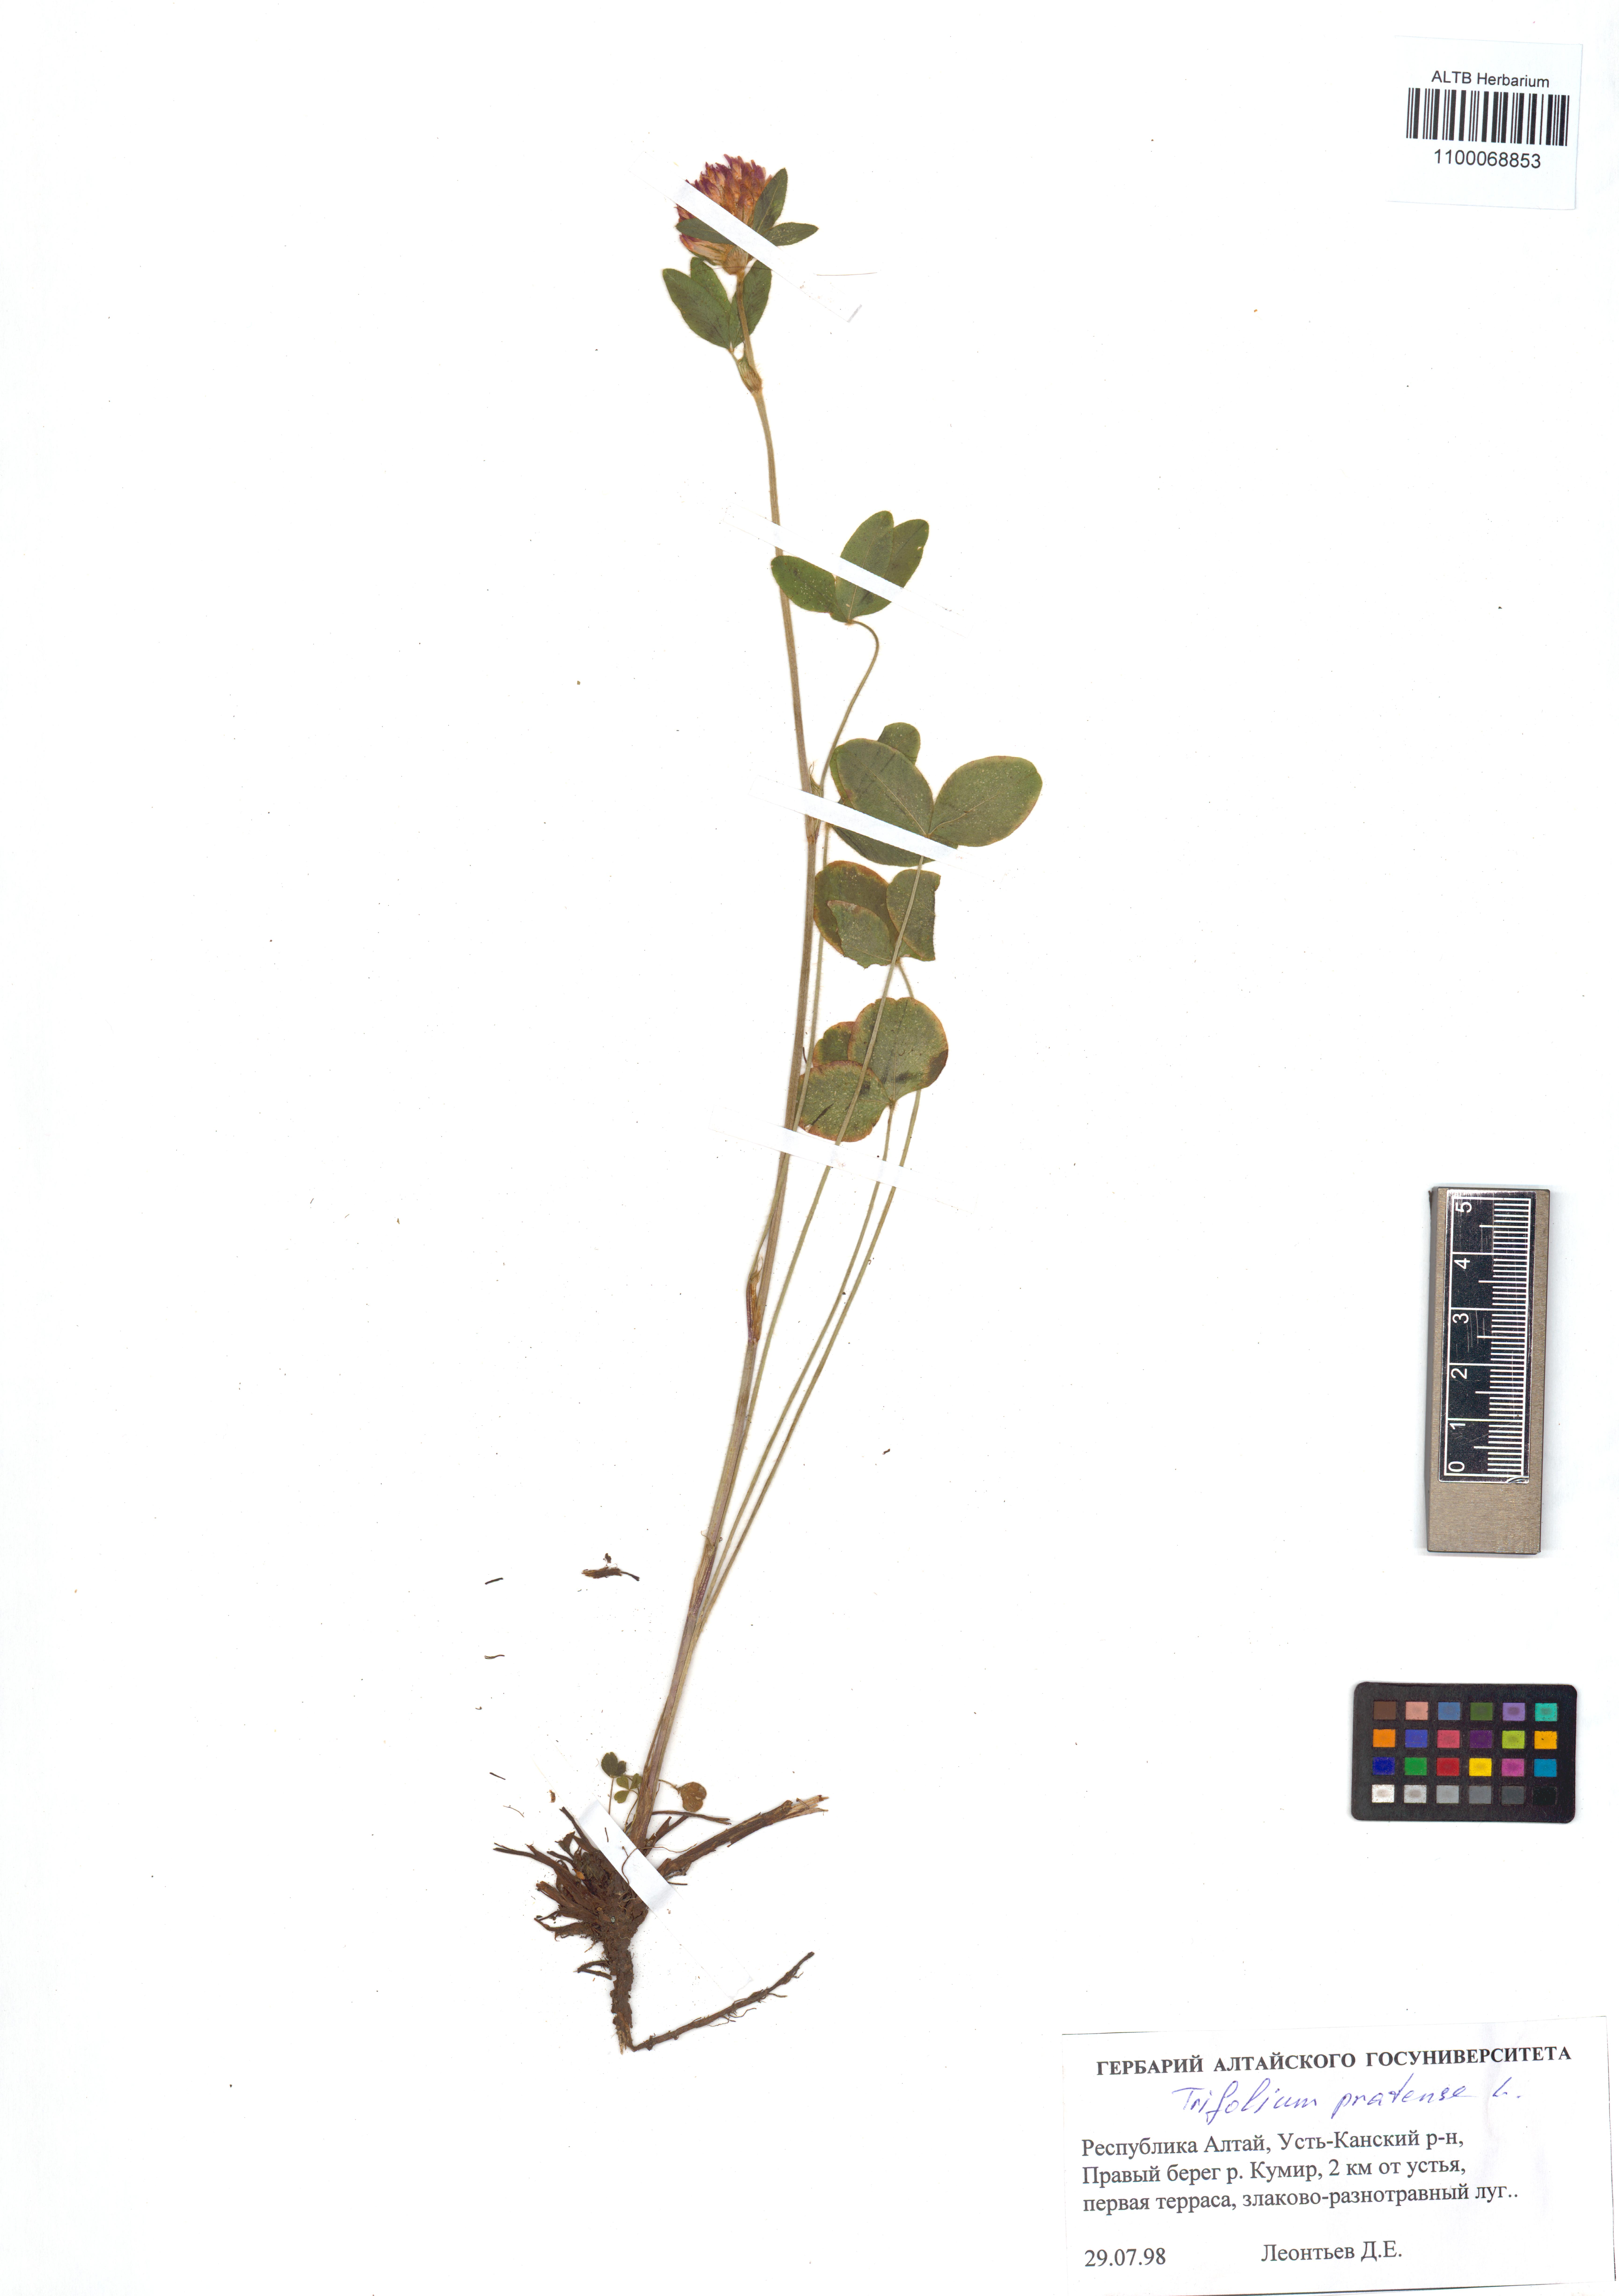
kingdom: Plantae
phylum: Tracheophyta
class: Magnoliopsida
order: Fabales
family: Fabaceae
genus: Trifolium
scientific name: Trifolium pratense
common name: Red clover
